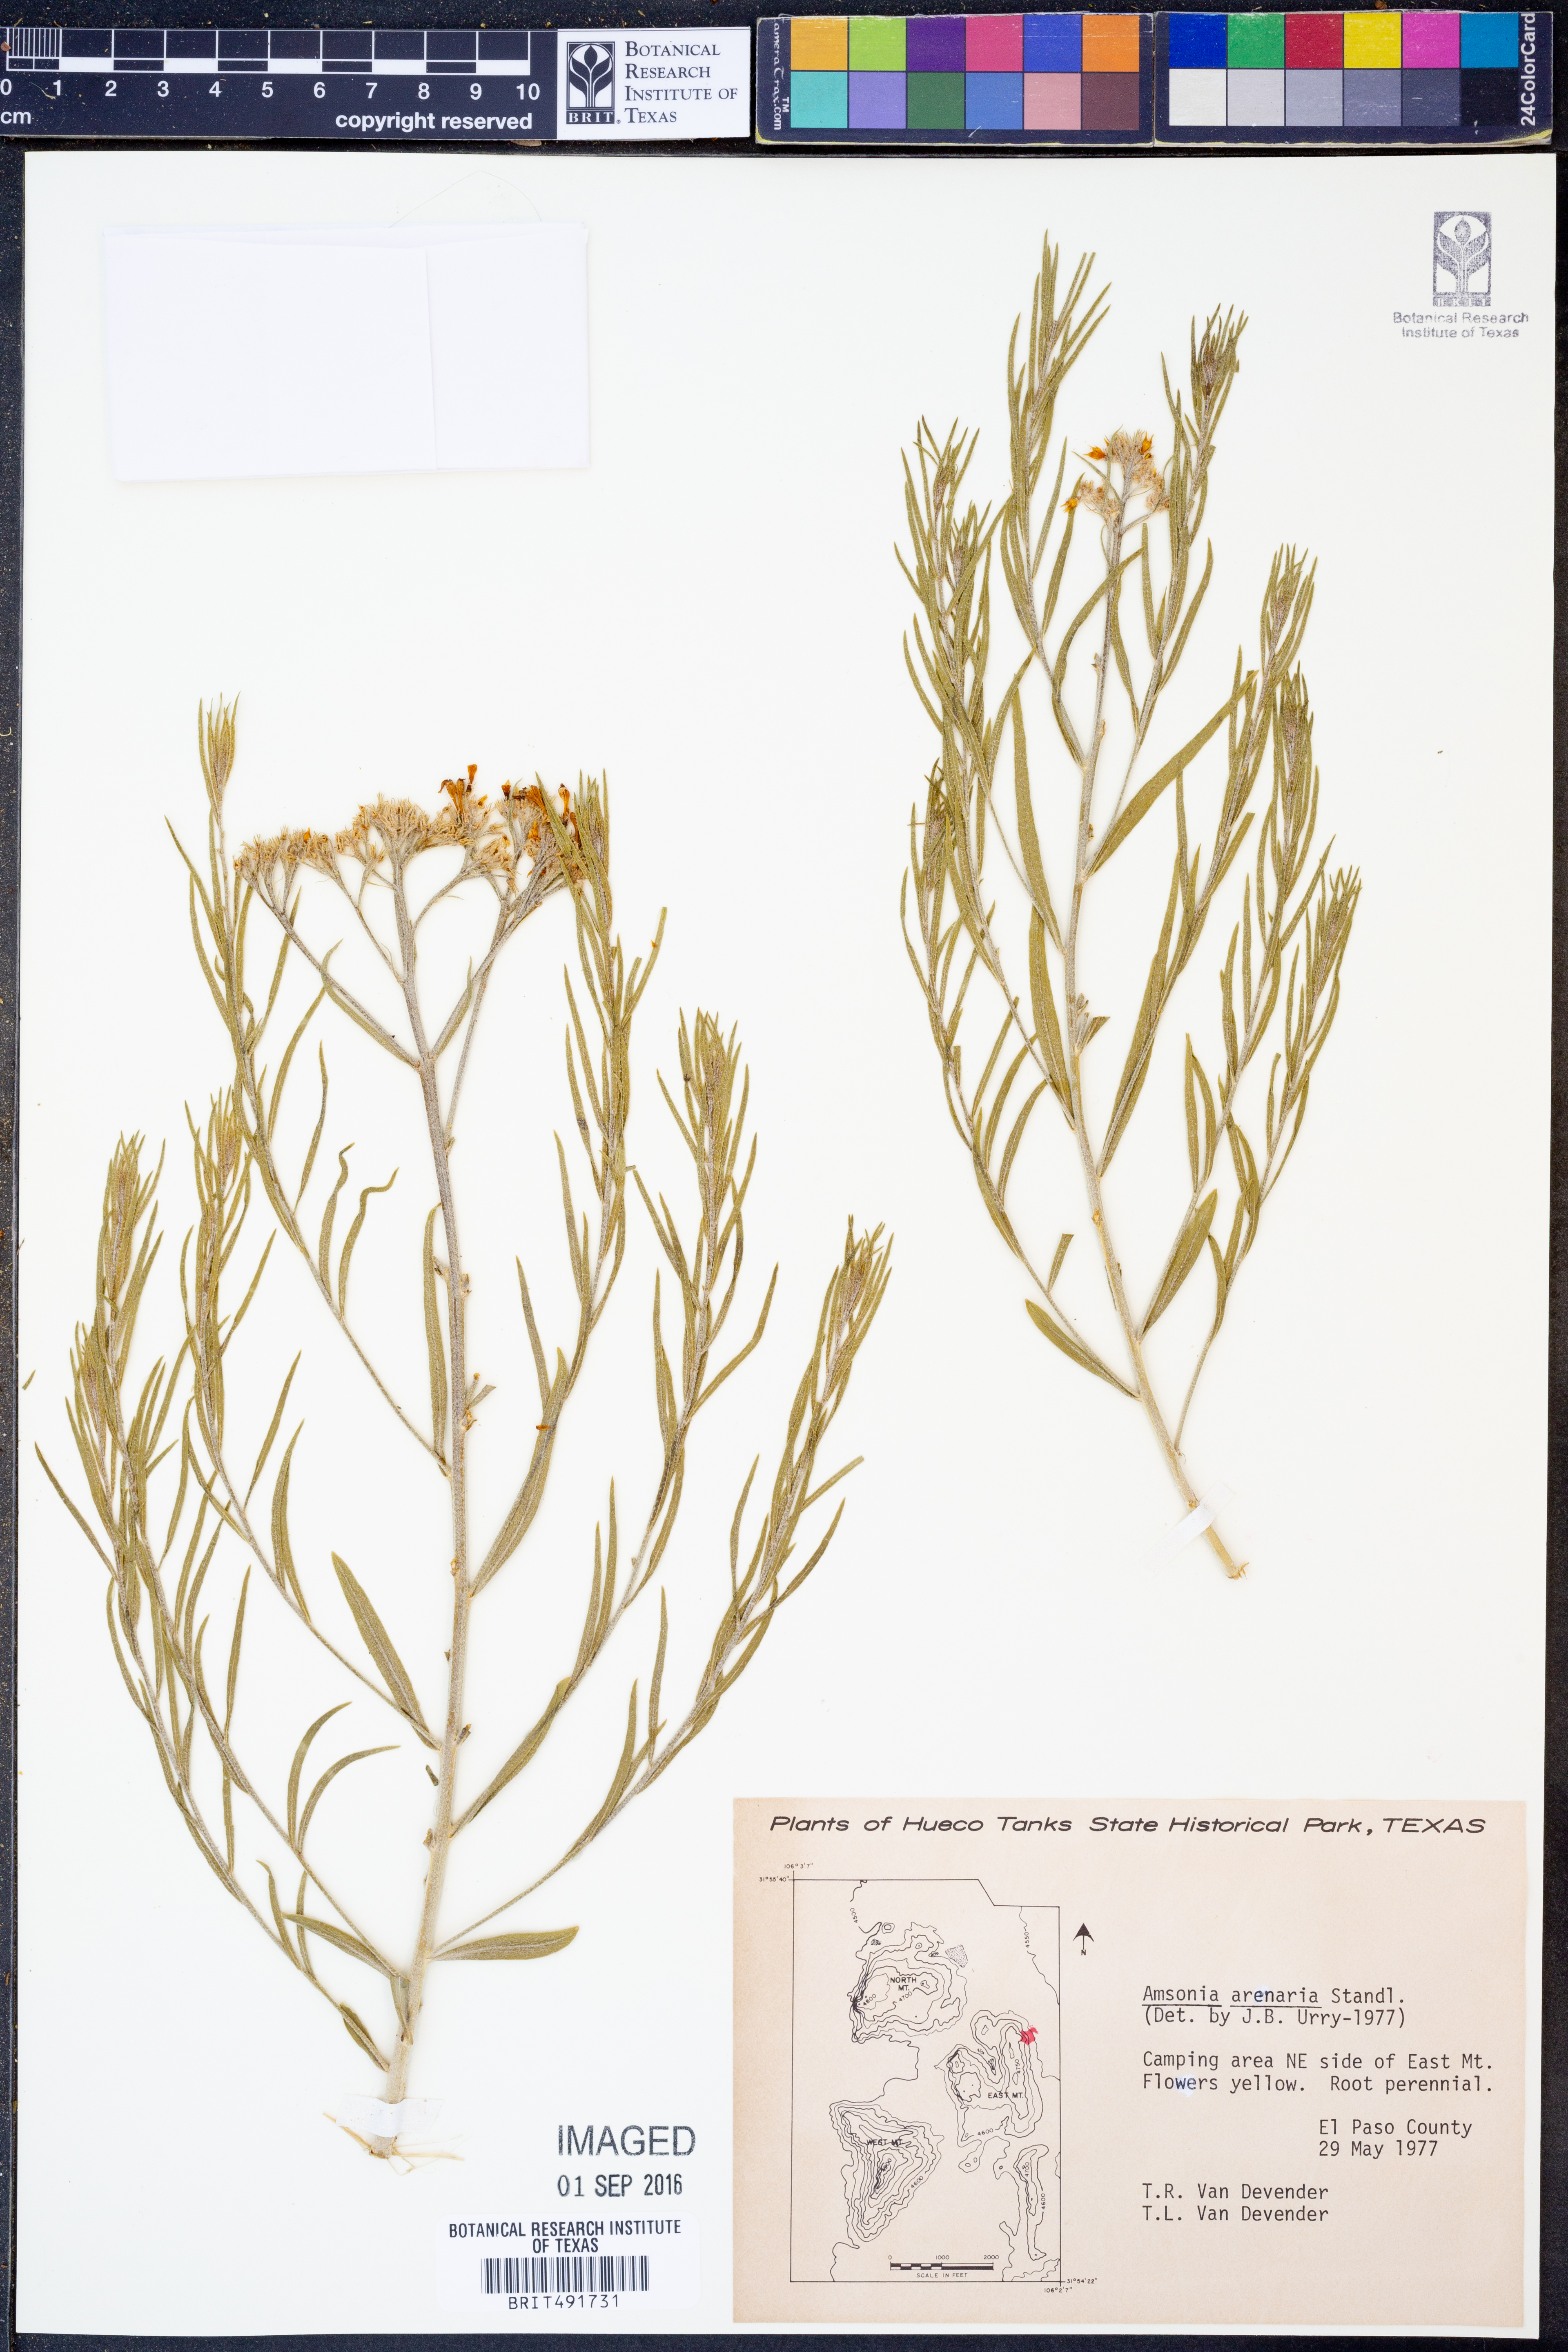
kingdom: Plantae
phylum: Tracheophyta
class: Magnoliopsida
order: Gentianales
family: Apocynaceae
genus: Amsonia
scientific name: Amsonia tomentosa
